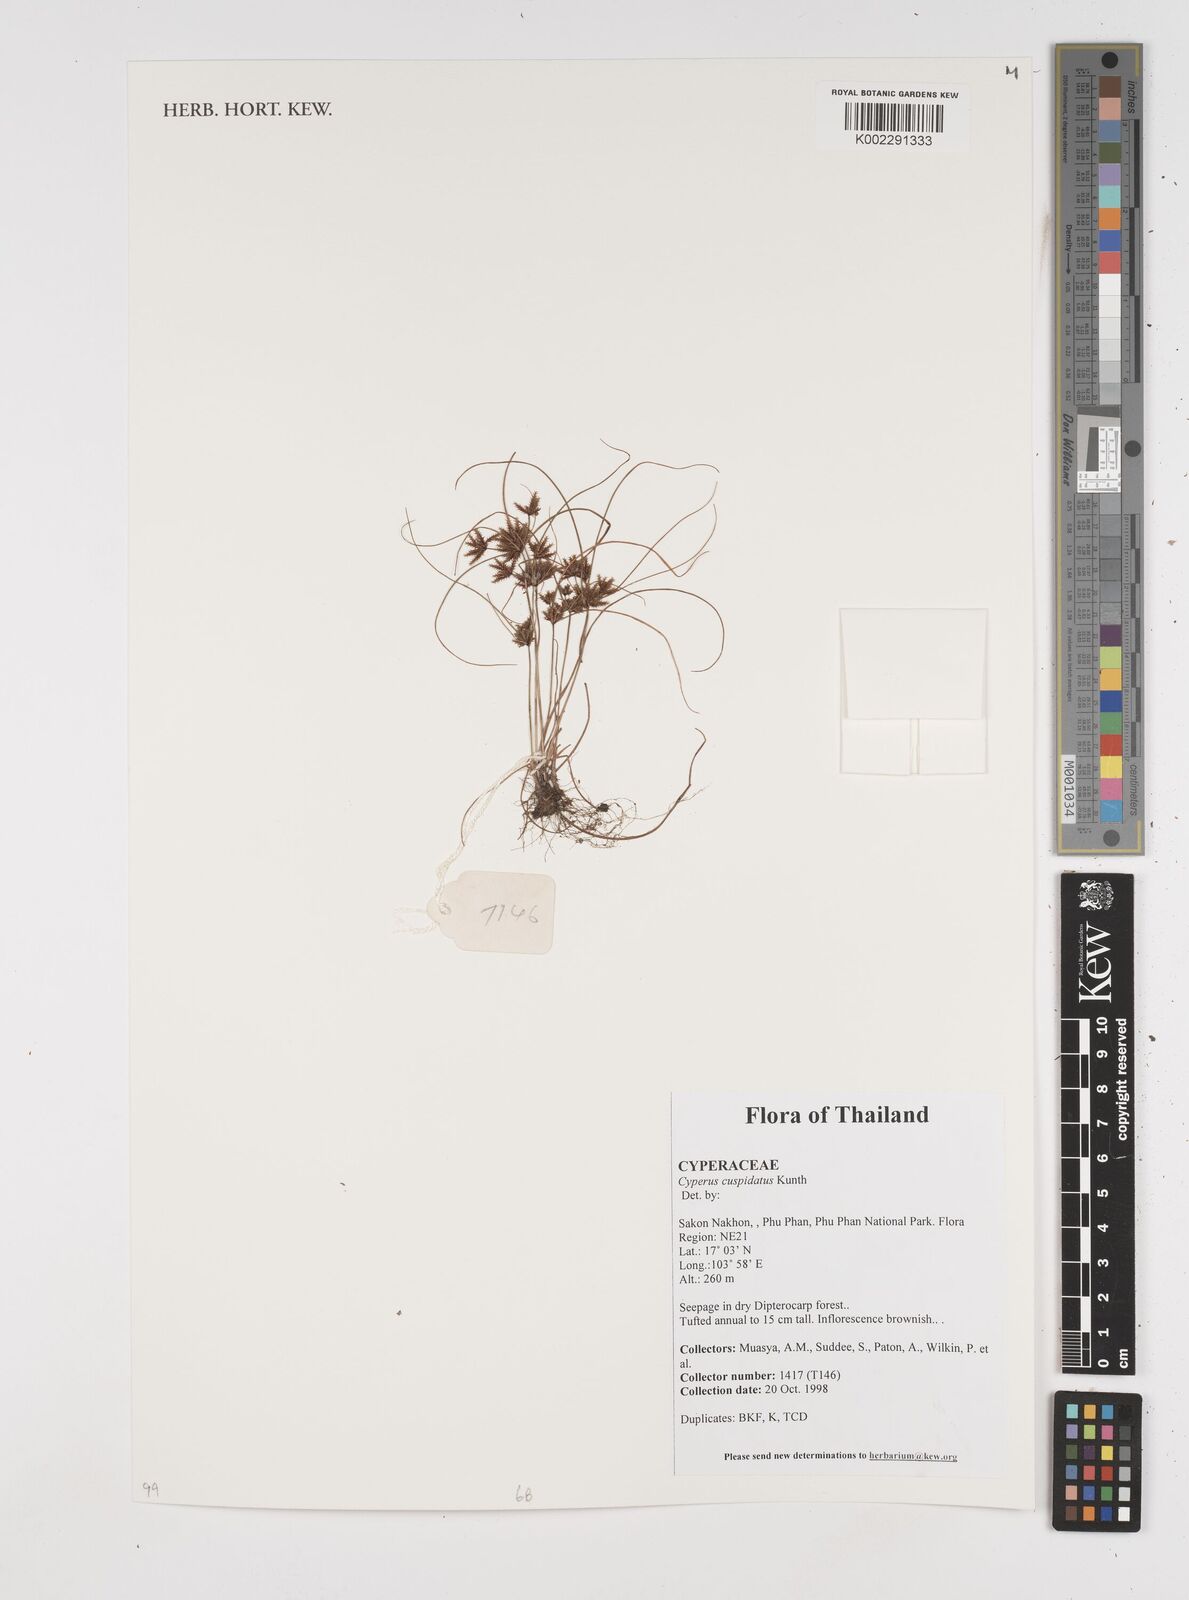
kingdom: Plantae
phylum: Tracheophyta
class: Liliopsida
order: Poales
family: Cyperaceae
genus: Cyperus
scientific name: Cyperus cuspidatus
